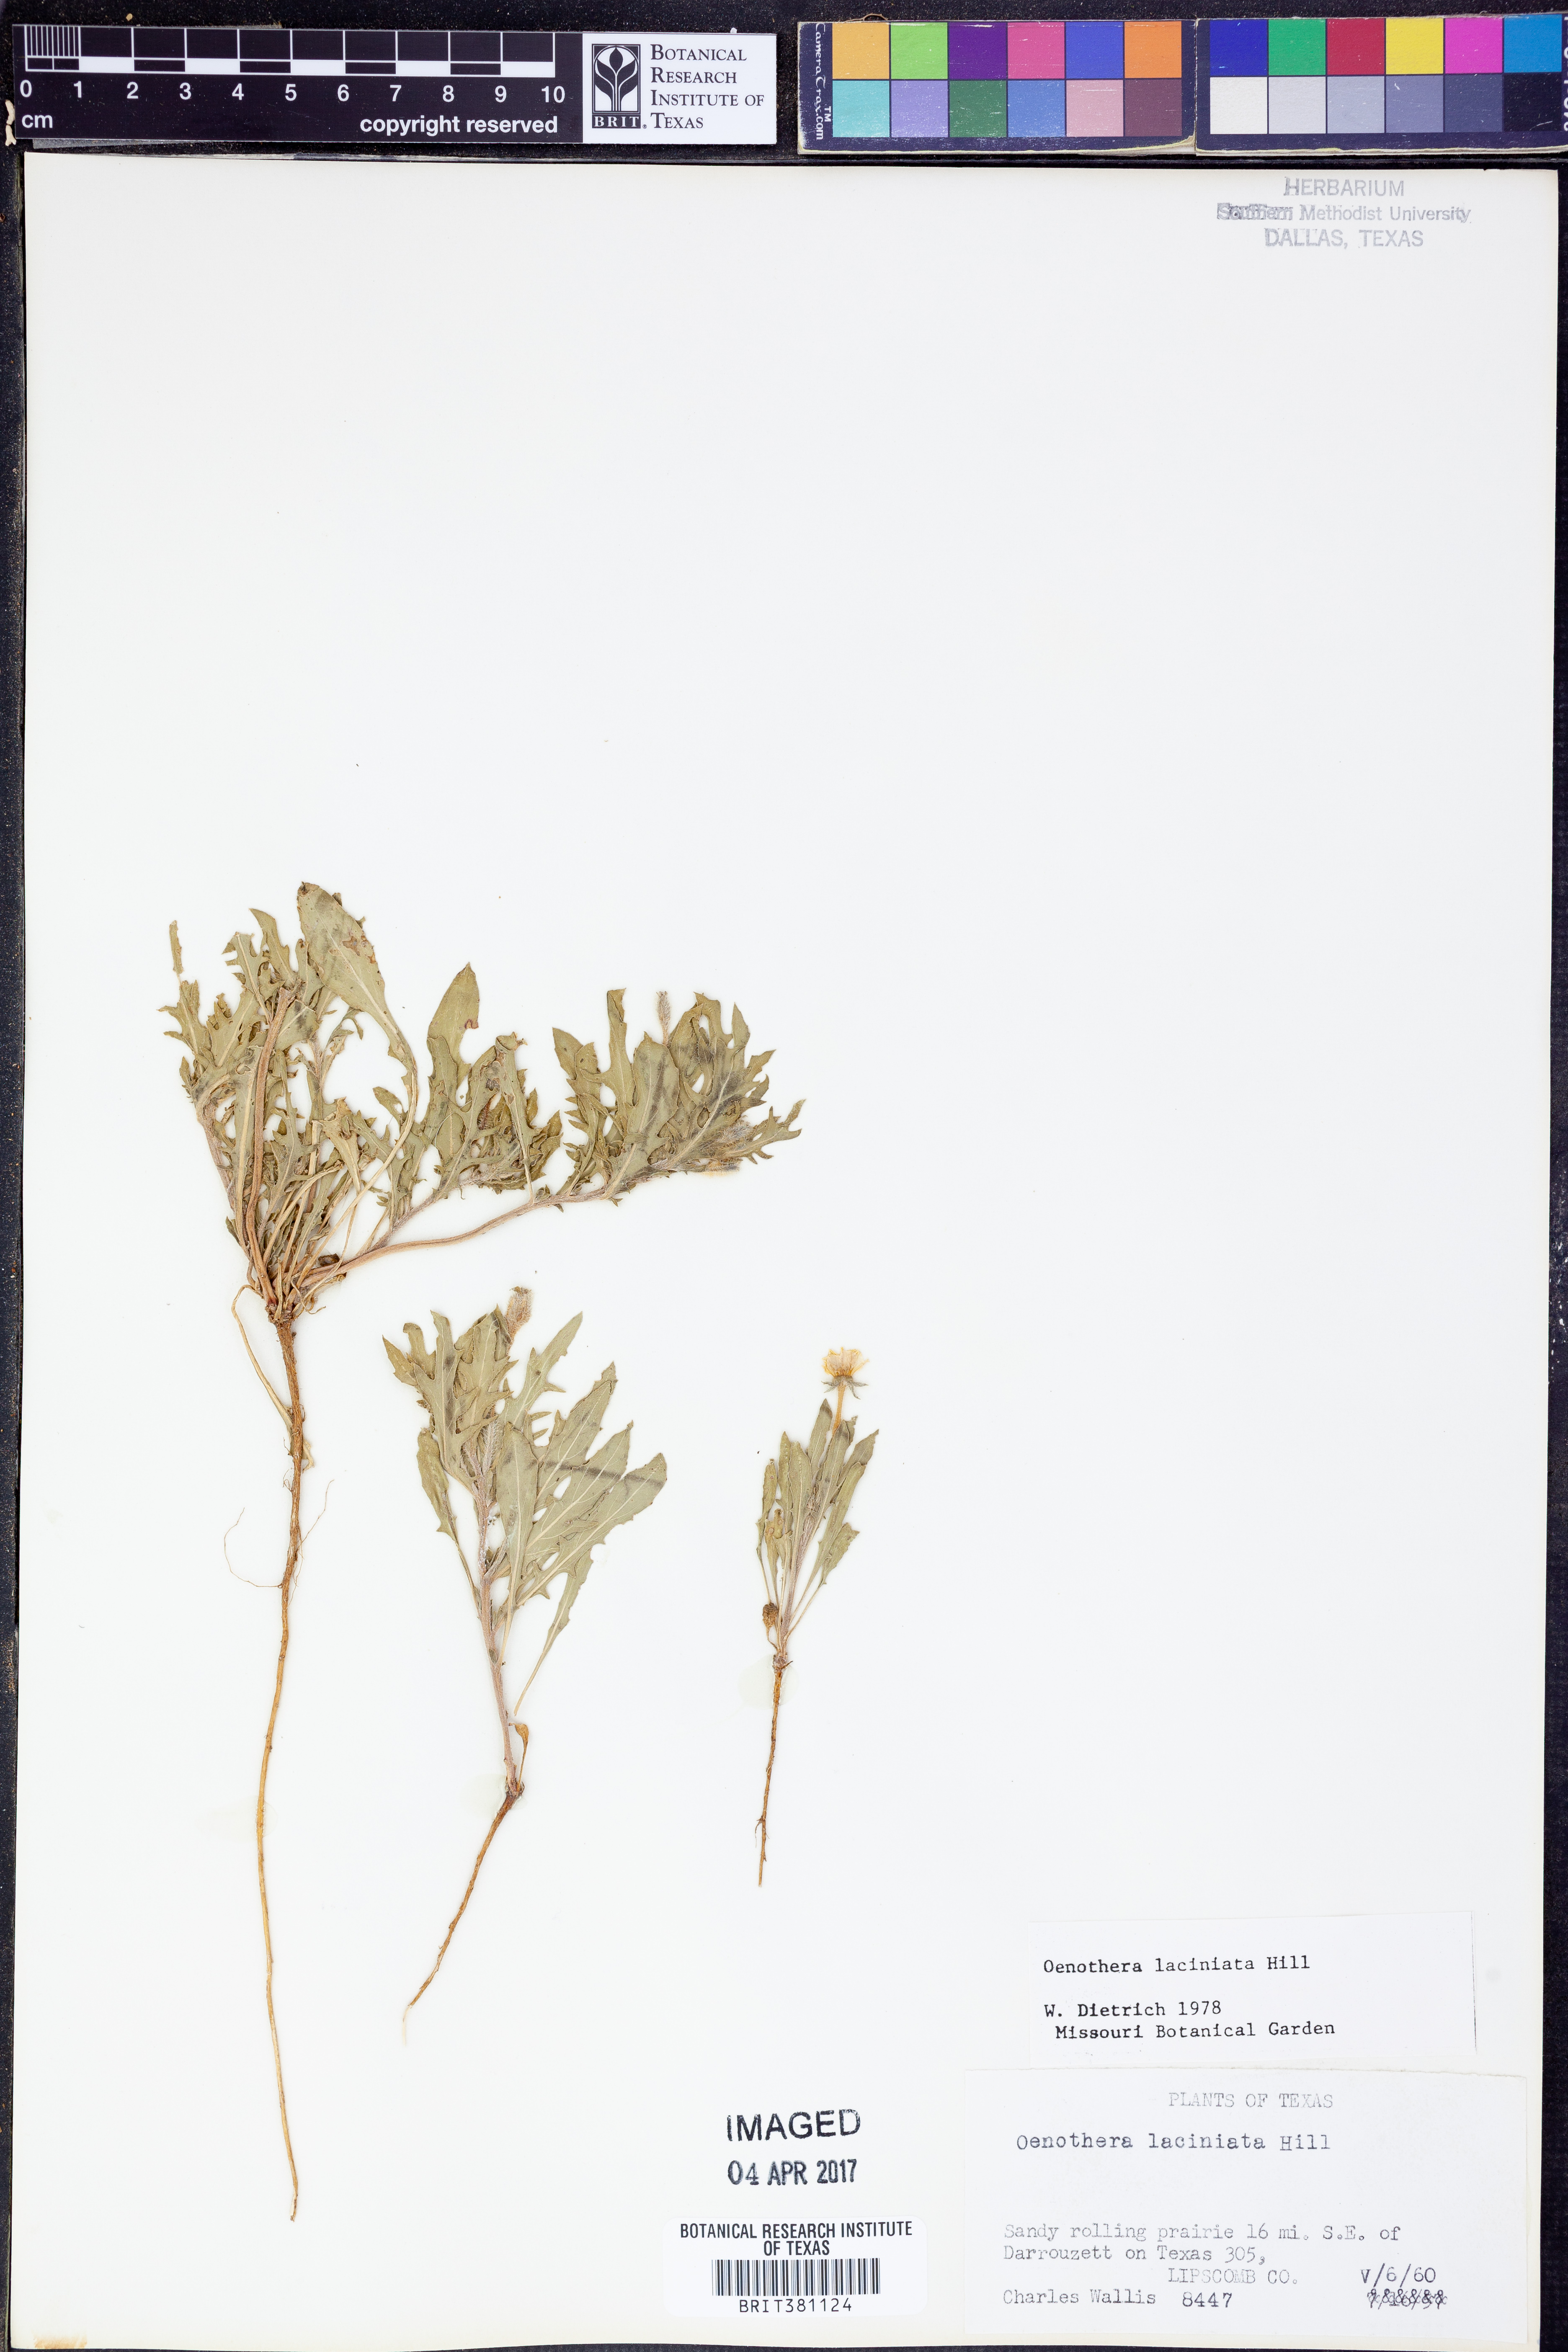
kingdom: Plantae
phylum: Tracheophyta
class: Magnoliopsida
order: Myrtales
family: Onagraceae
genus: Oenothera
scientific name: Oenothera laciniata
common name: Cut-leaved evening-primrose
